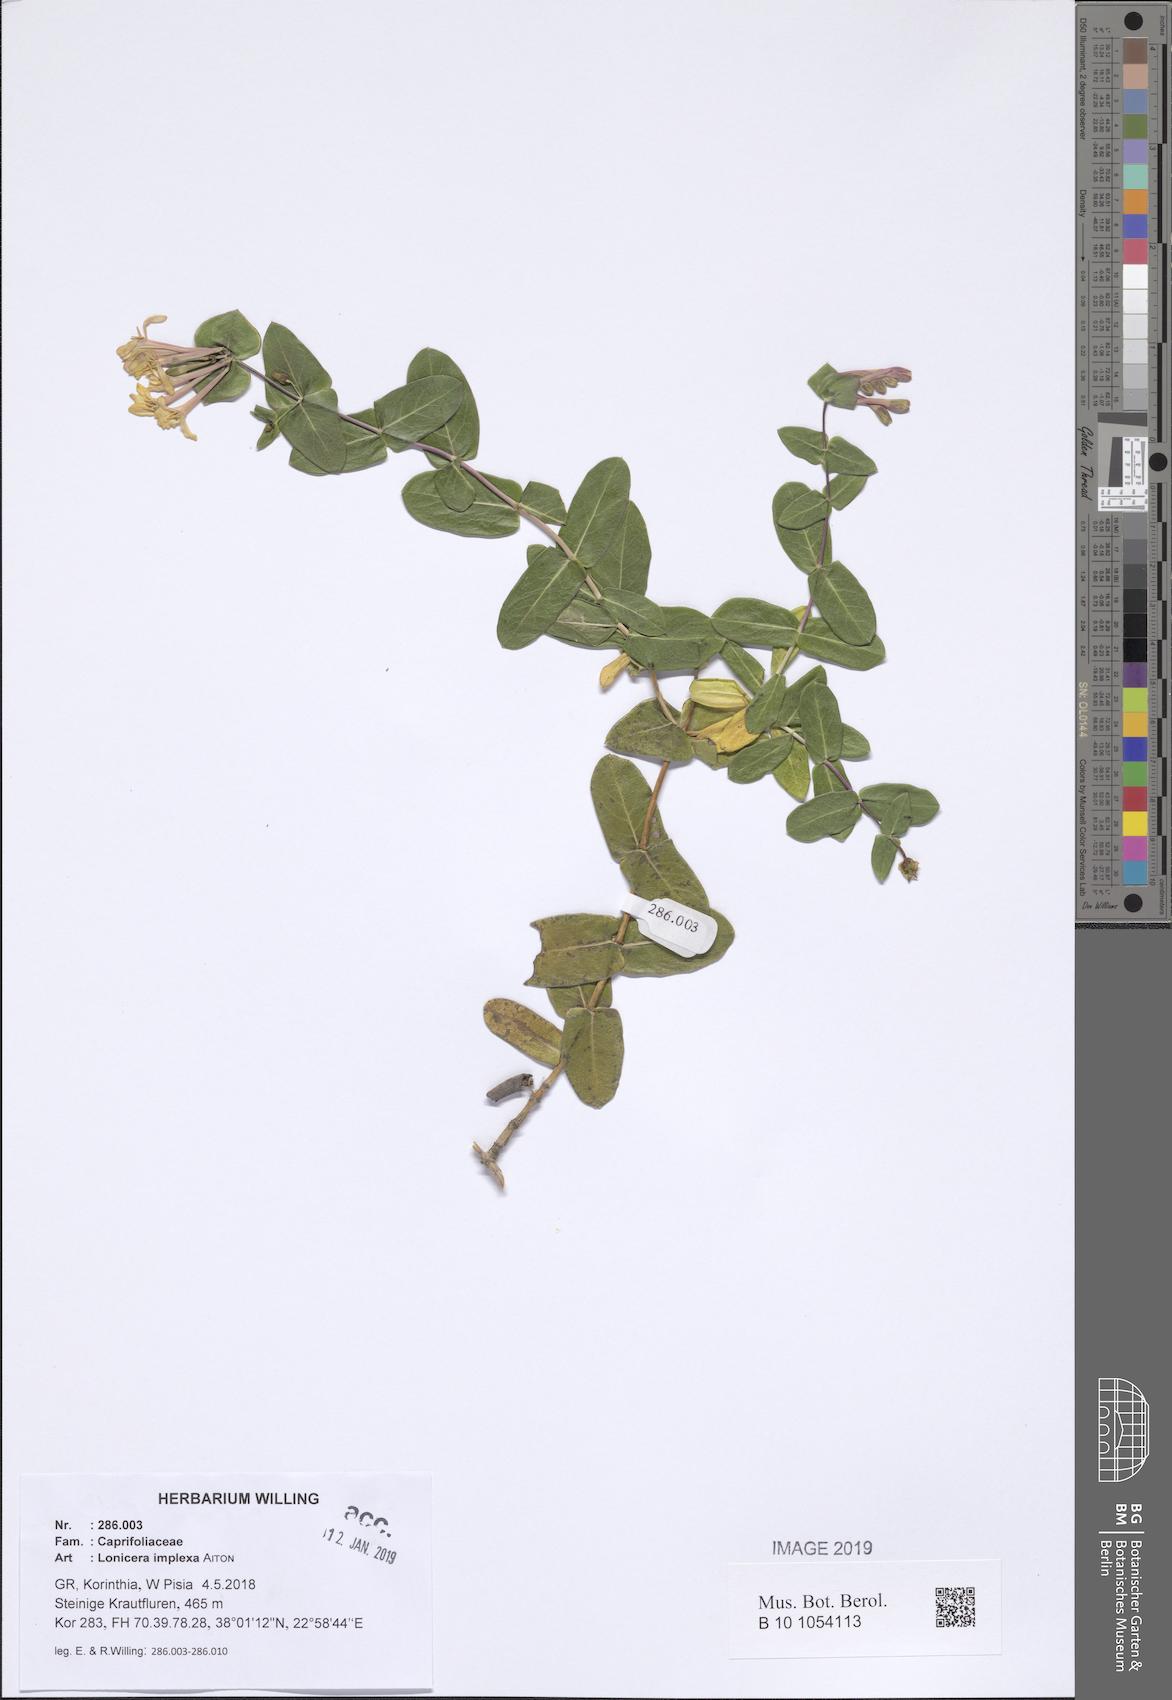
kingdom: Plantae
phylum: Tracheophyta
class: Magnoliopsida
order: Dipsacales
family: Caprifoliaceae
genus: Lonicera
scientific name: Lonicera implexa
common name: Minorca honeysuckle
